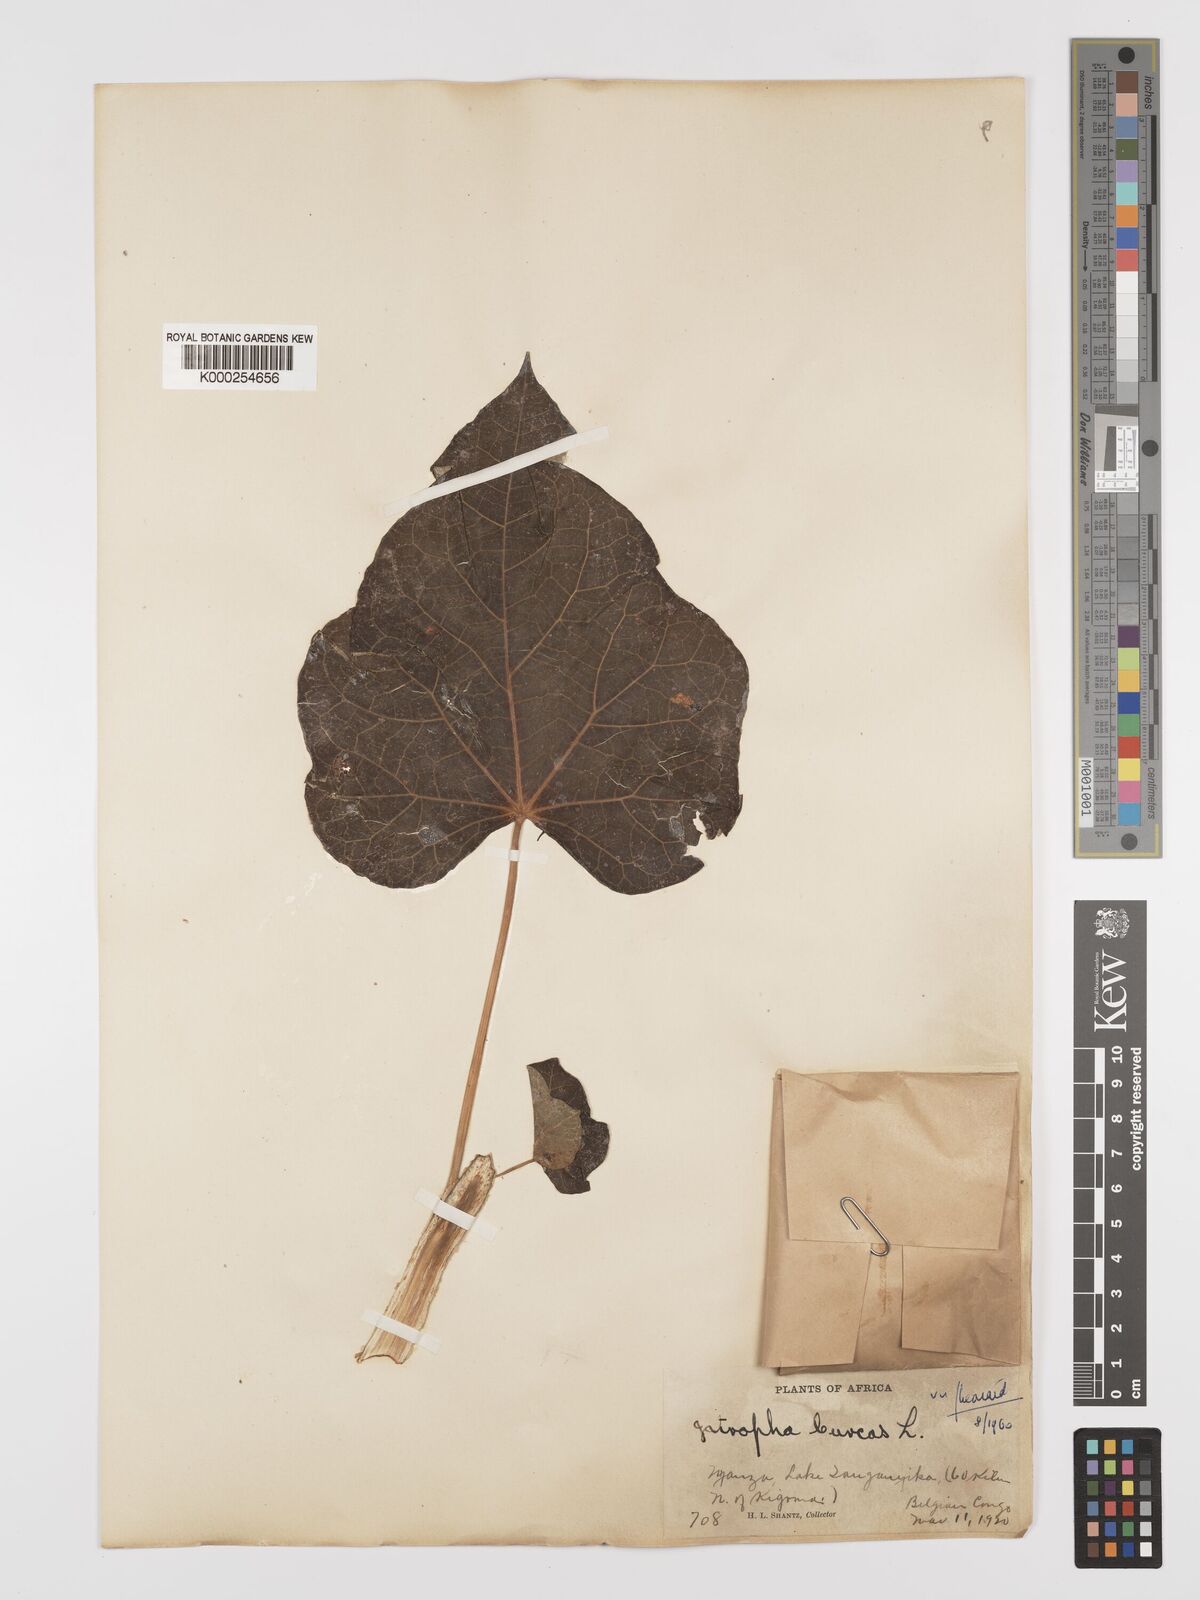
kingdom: Plantae
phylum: Tracheophyta
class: Magnoliopsida
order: Malpighiales
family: Euphorbiaceae
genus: Jatropha
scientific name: Jatropha curcas
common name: Barbados nut
